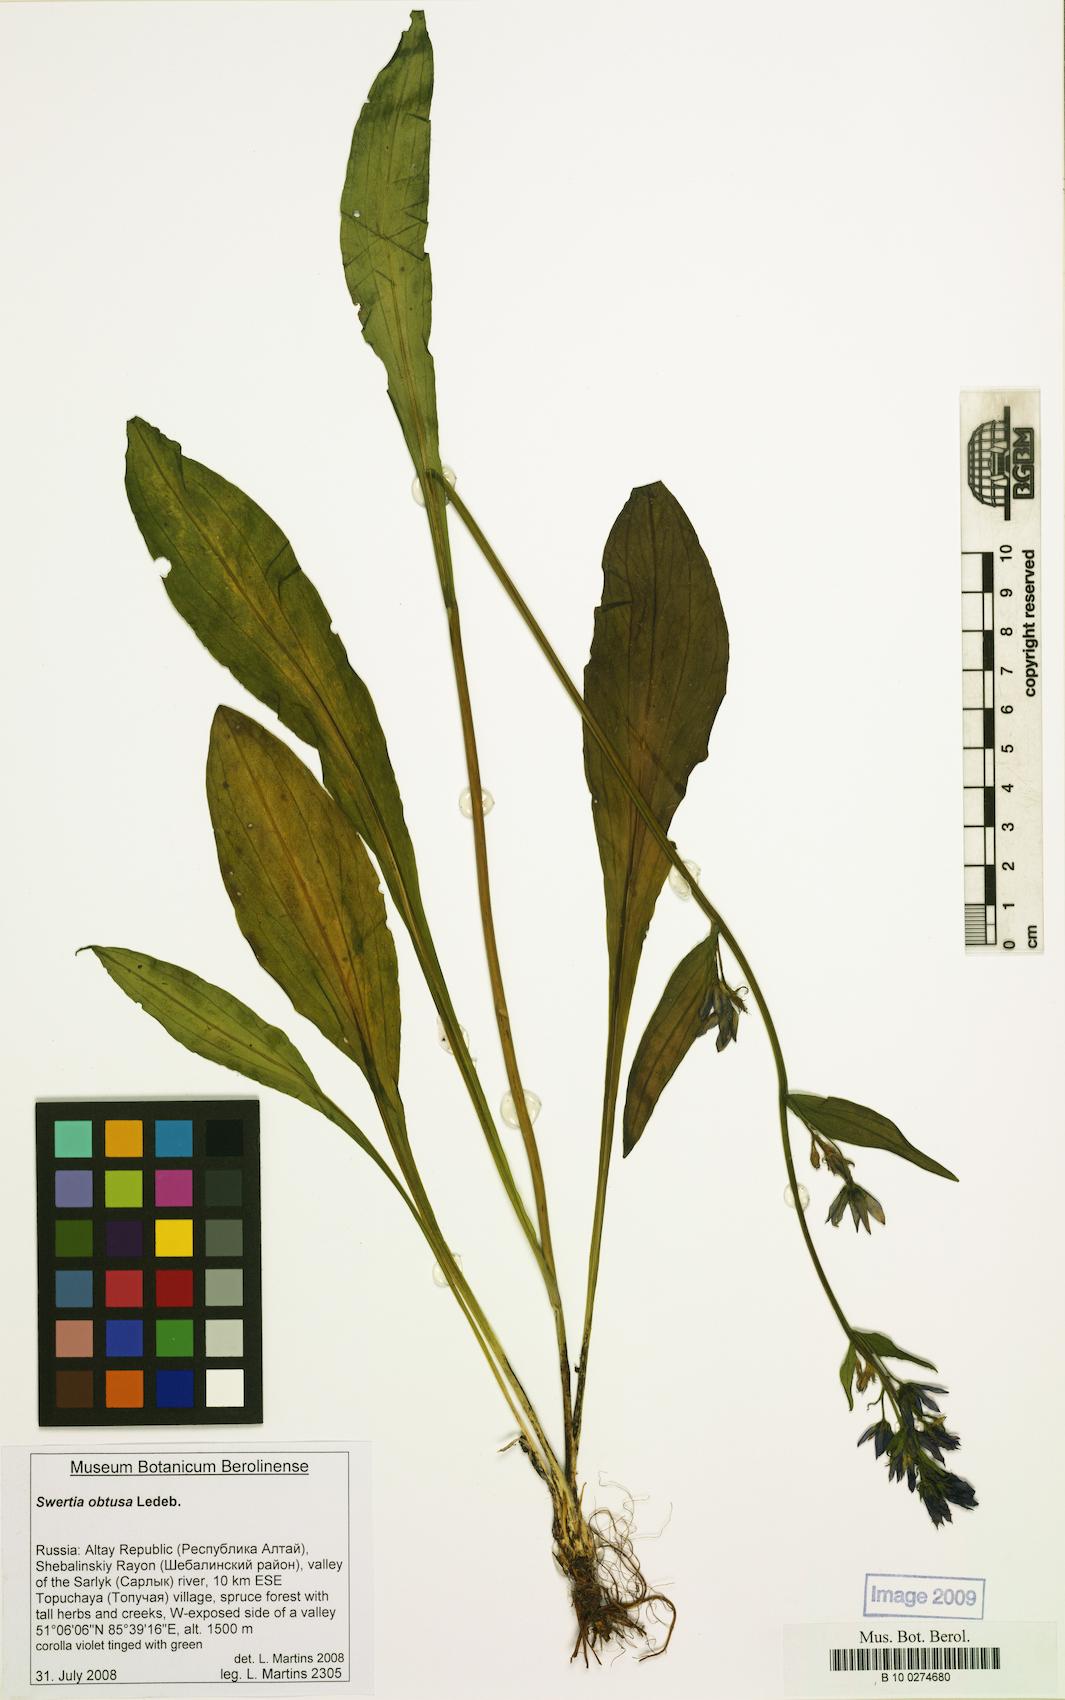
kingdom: Plantae
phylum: Tracheophyta
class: Magnoliopsida
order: Gentianales
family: Gentianaceae
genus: Swertia
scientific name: Swertia obtusa
